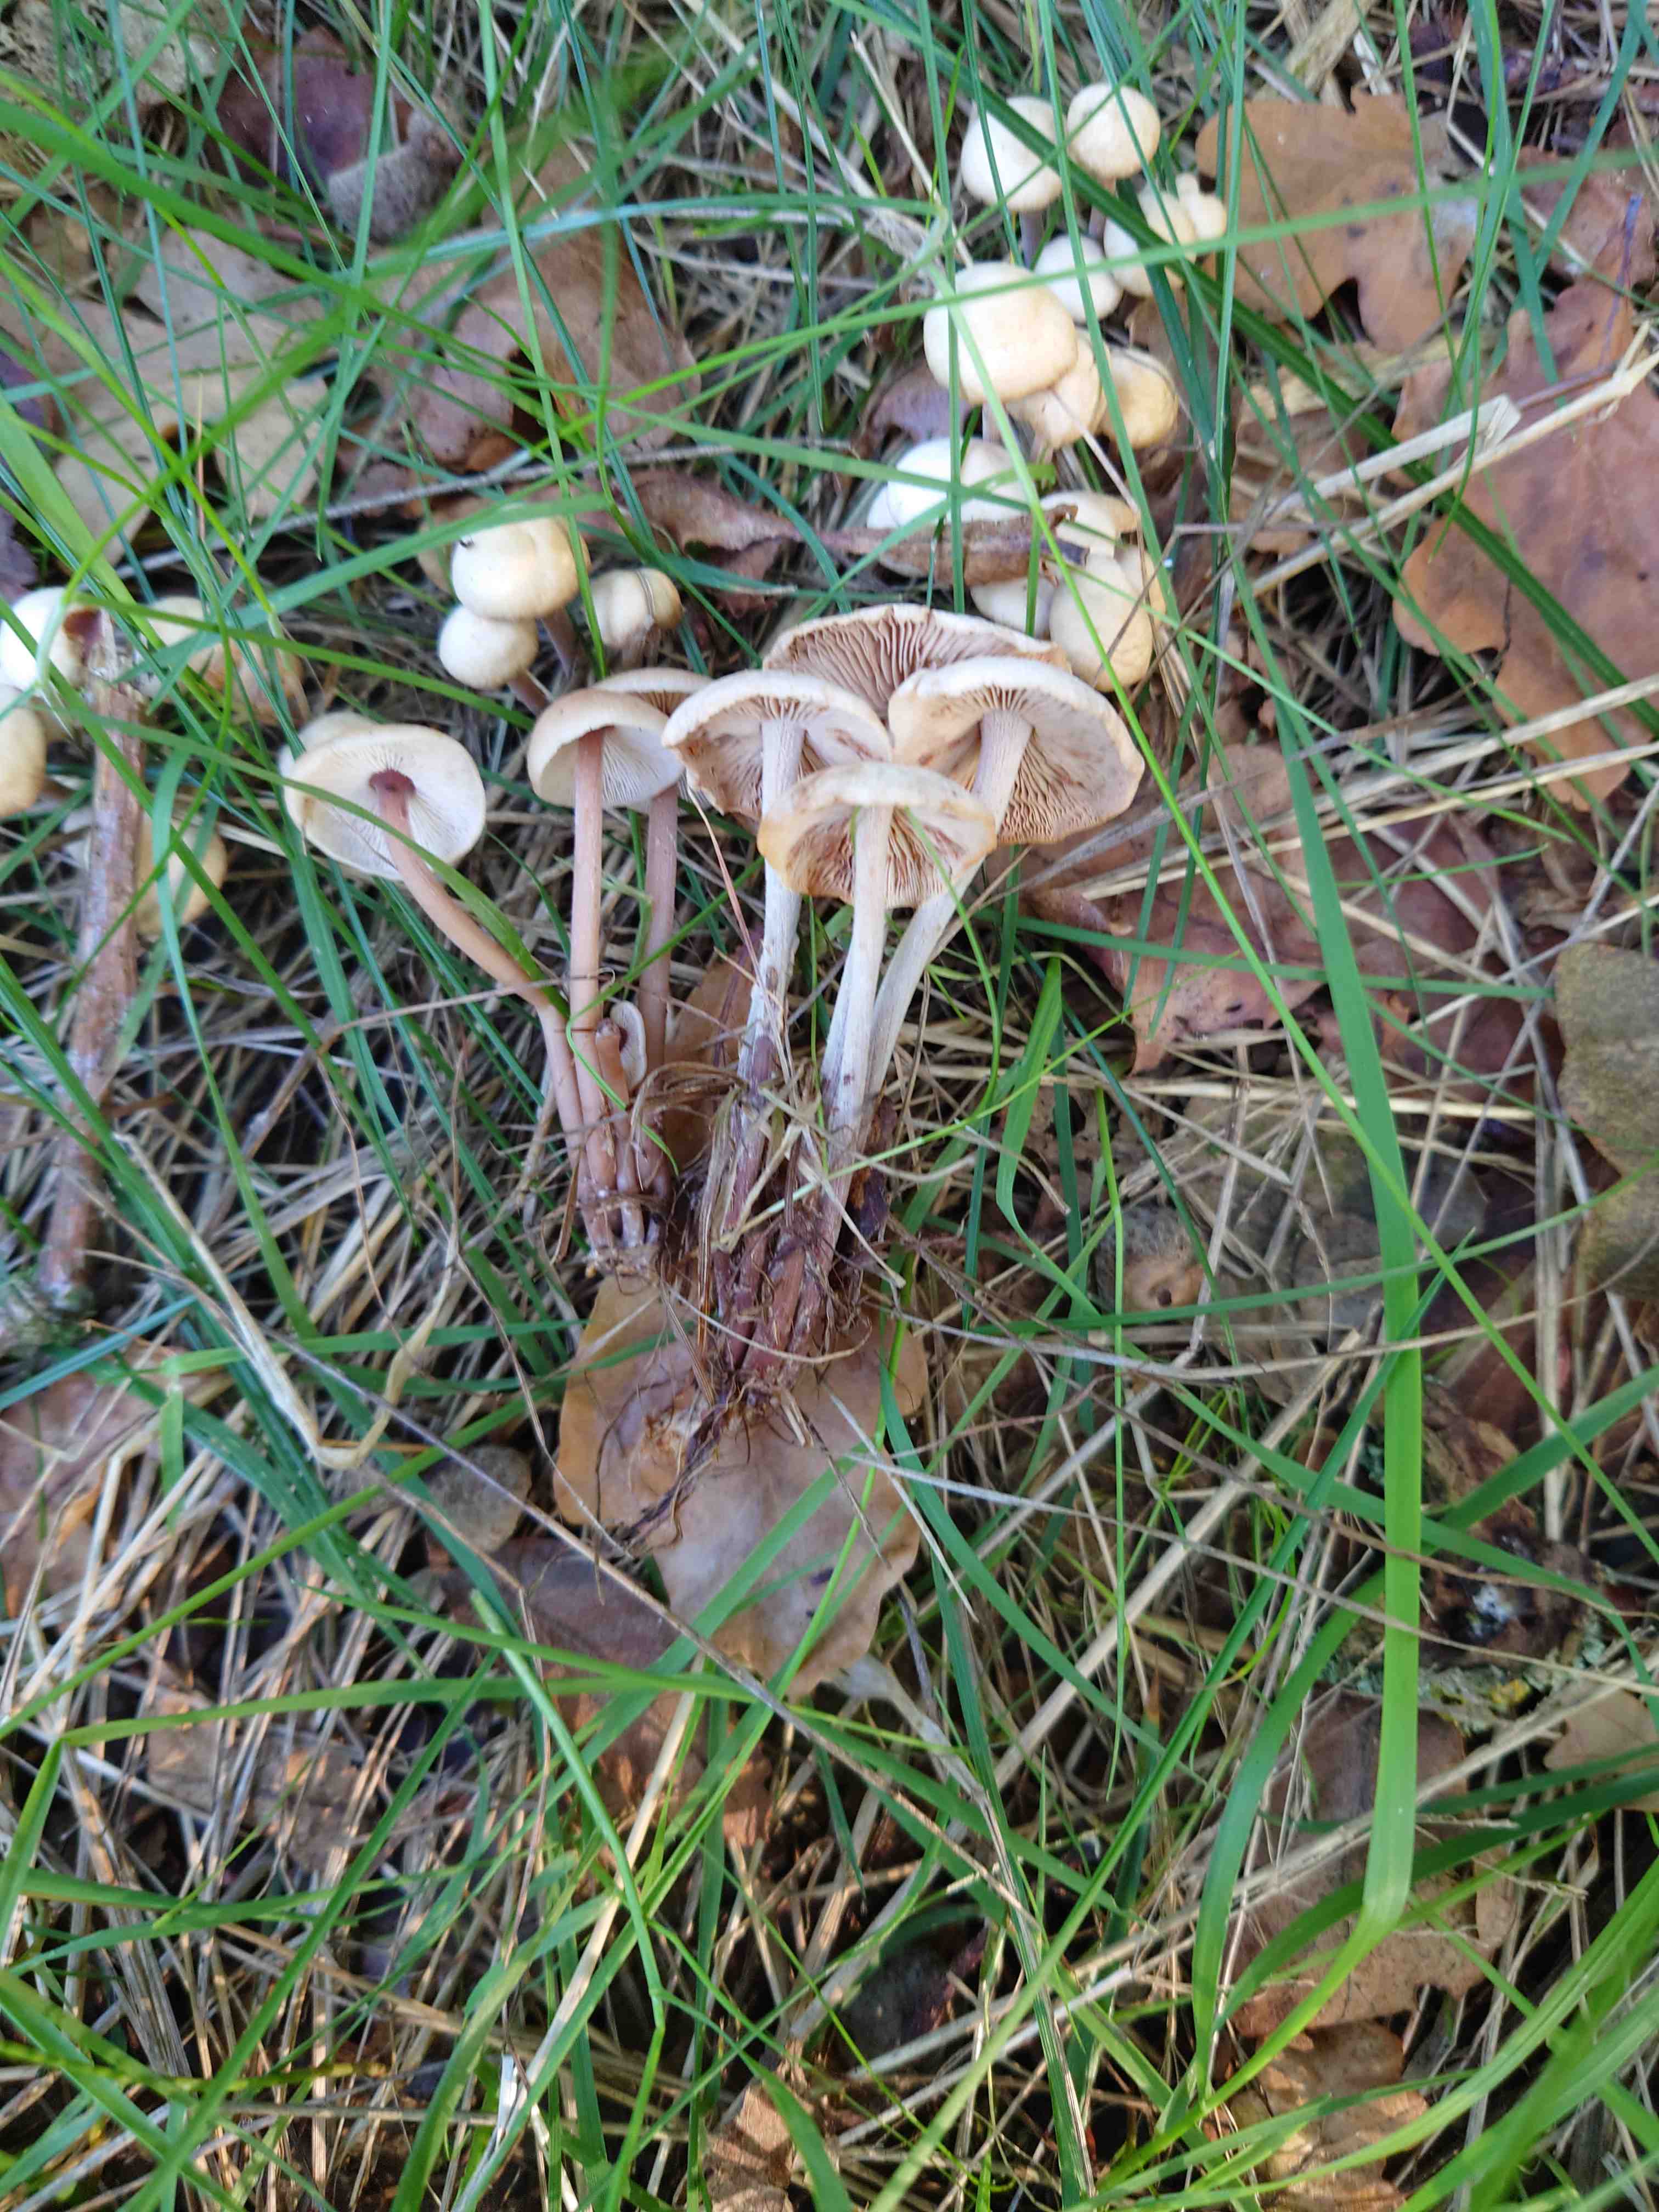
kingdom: Fungi
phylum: Basidiomycota
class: Agaricomycetes
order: Agaricales
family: Omphalotaceae
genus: Collybiopsis
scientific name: Collybiopsis confluens
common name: knippe-fladhat
